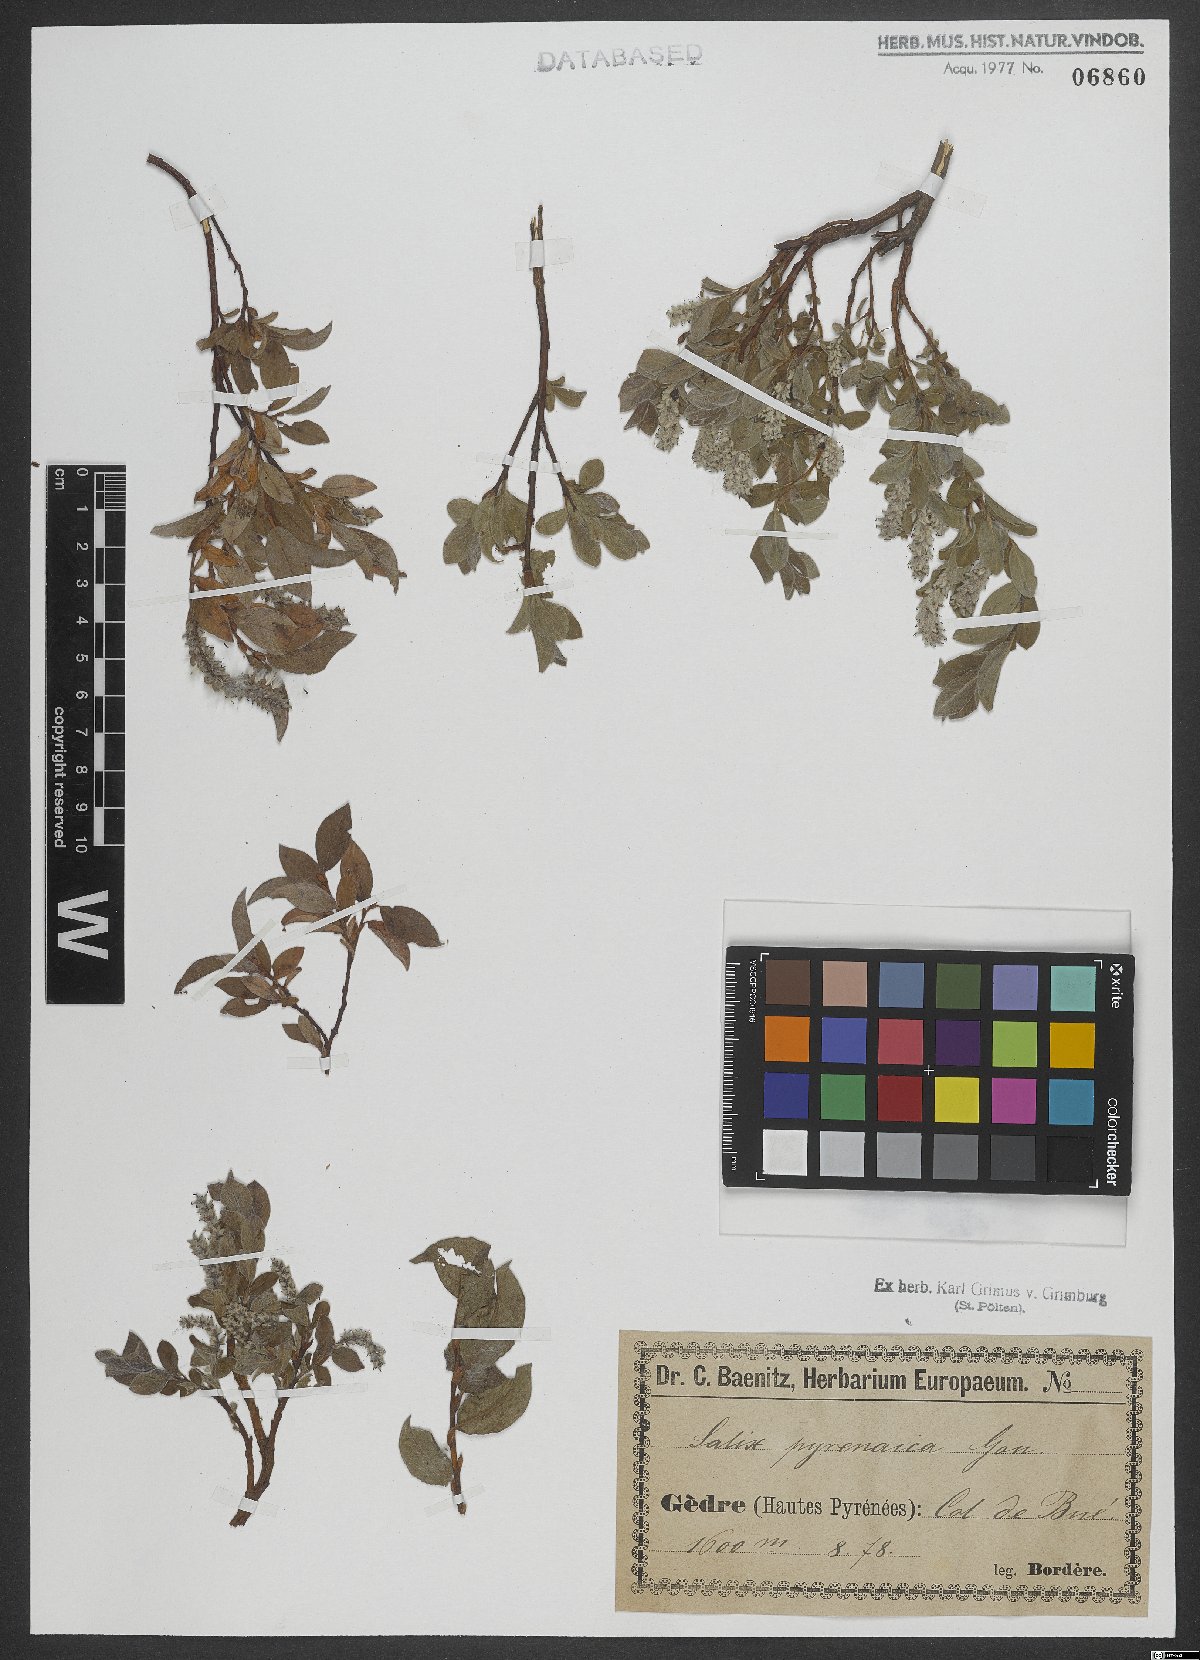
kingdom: Plantae
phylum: Tracheophyta
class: Magnoliopsida
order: Malpighiales
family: Salicaceae
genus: Salix
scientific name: Salix pyrenaica
